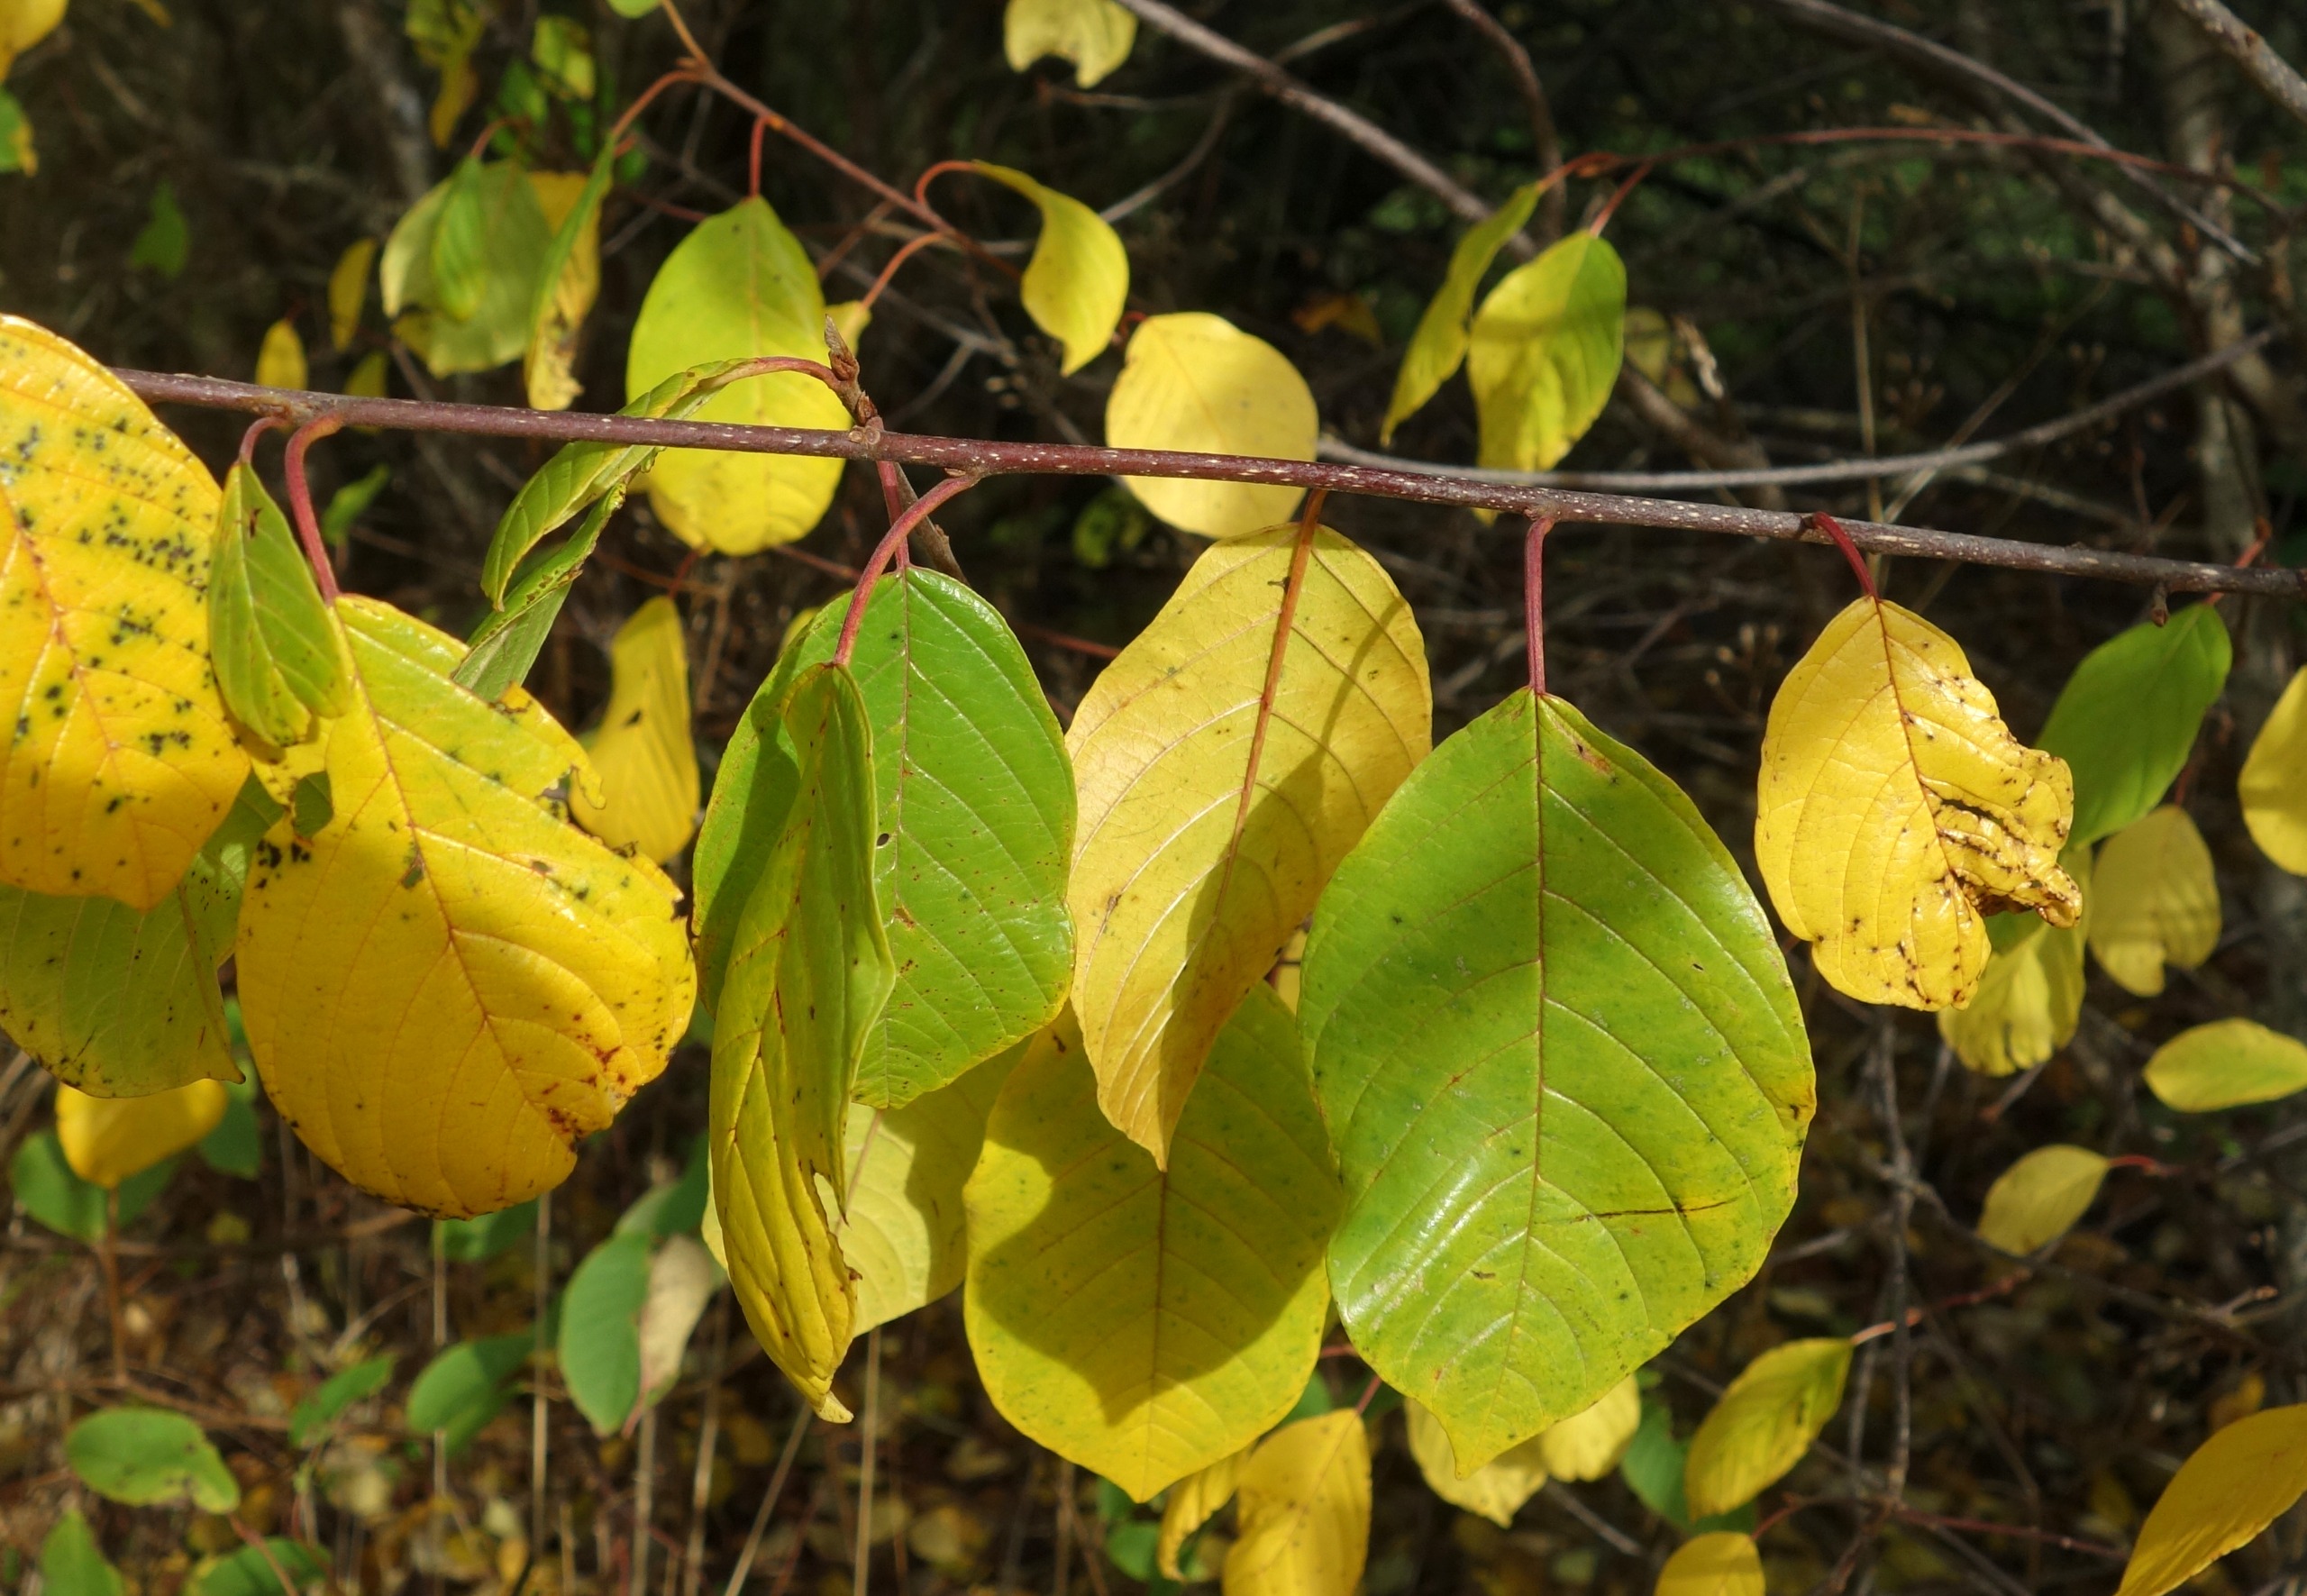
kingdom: Plantae
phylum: Tracheophyta
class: Magnoliopsida
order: Rosales
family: Rhamnaceae
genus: Frangula
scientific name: Frangula alnus
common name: Tørst
